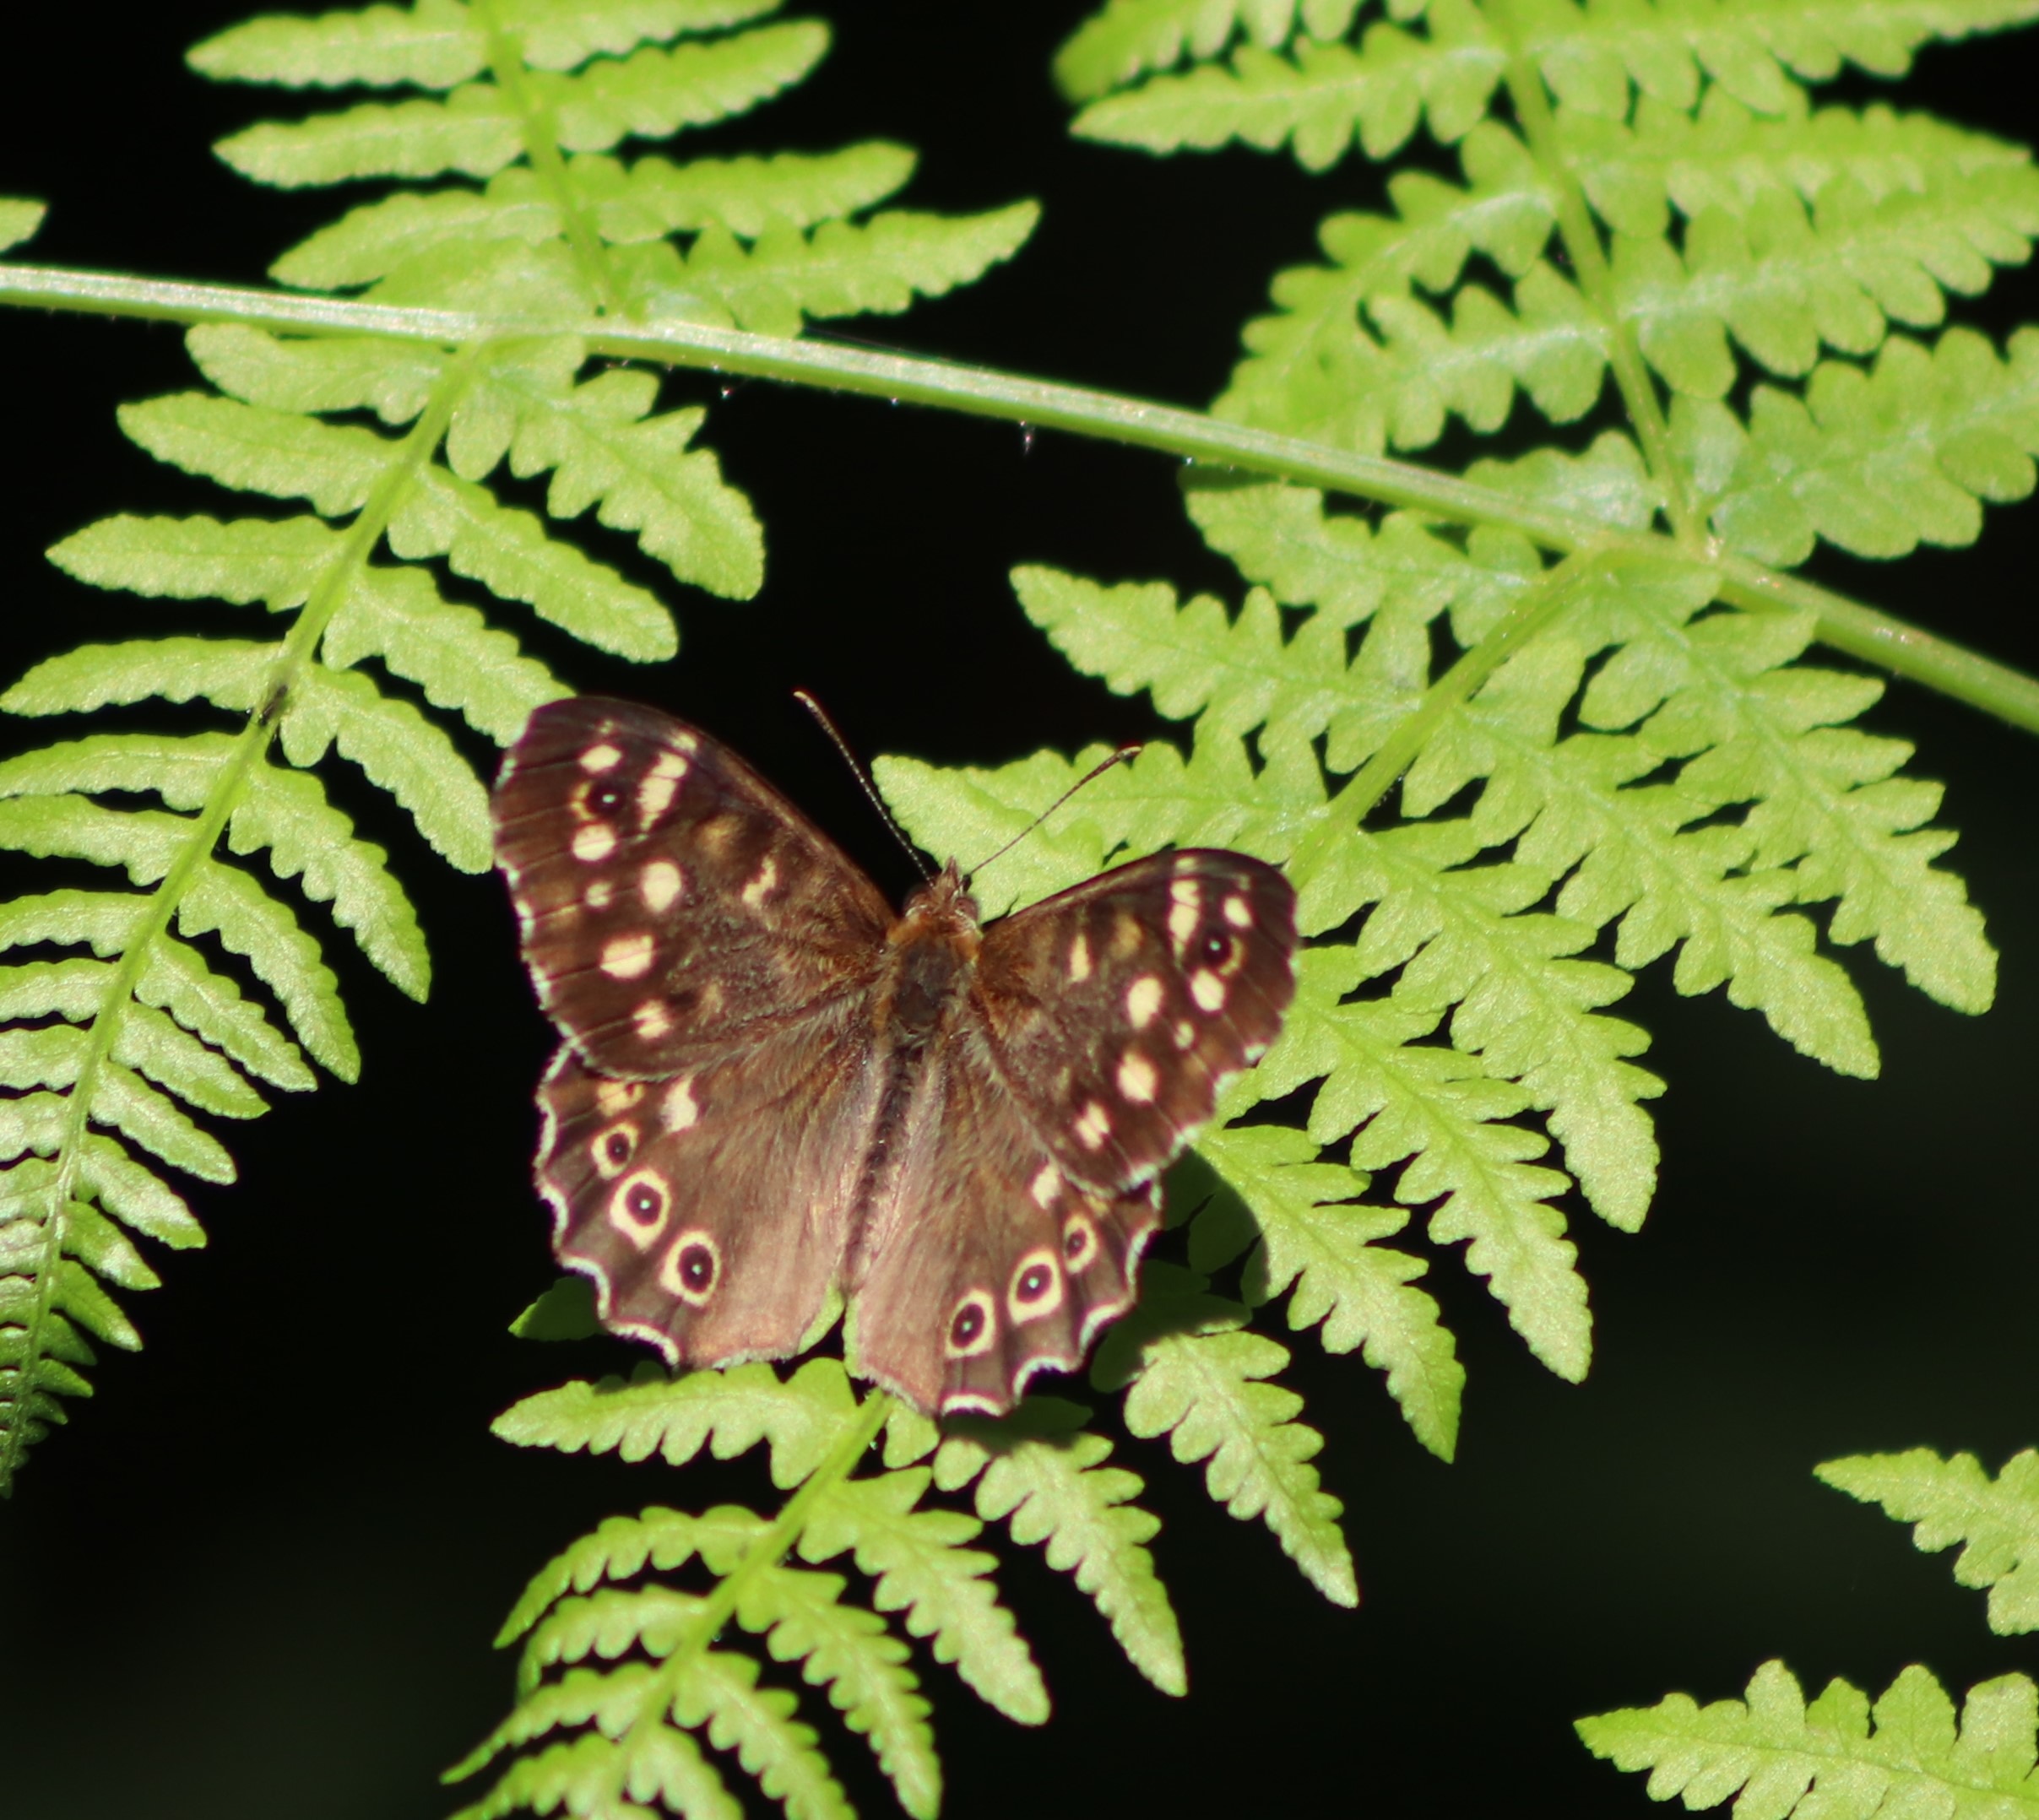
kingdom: Animalia
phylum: Arthropoda
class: Insecta
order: Lepidoptera
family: Nymphalidae
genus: Pararge
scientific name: Pararge aegeria
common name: Skovrandøje
